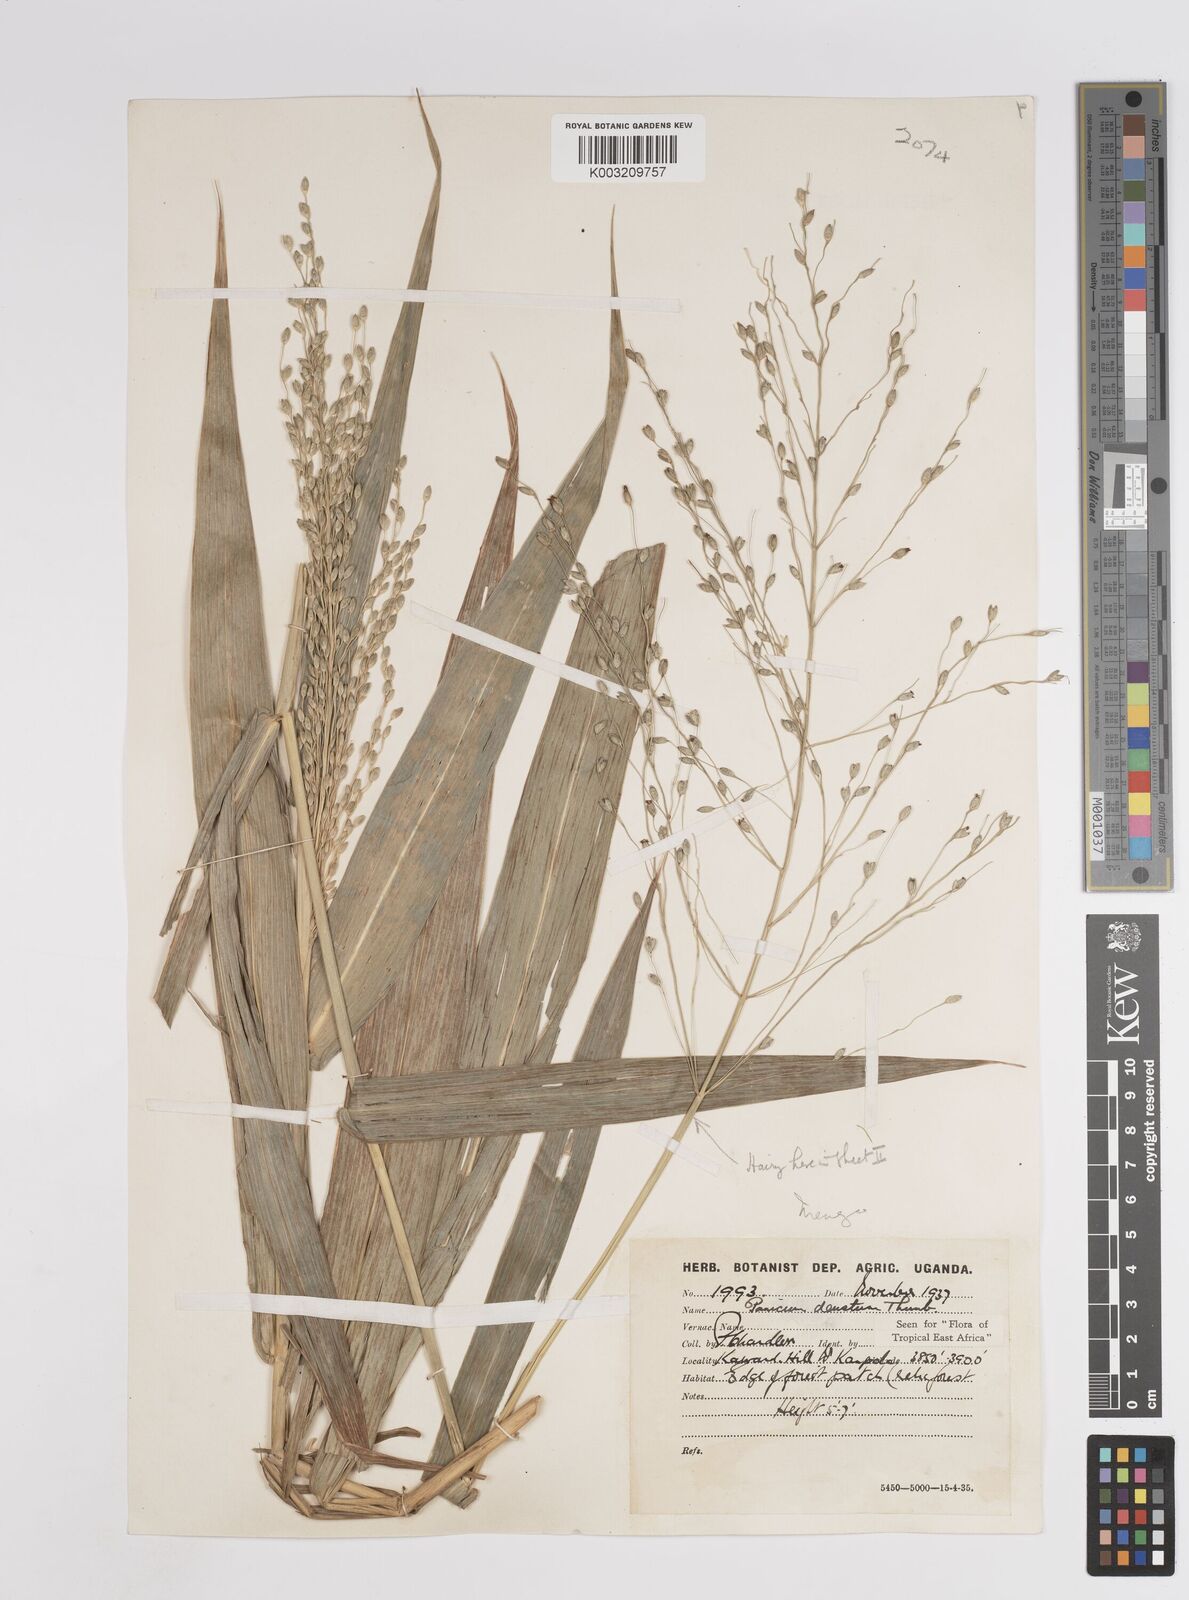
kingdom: Plantae
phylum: Tracheophyta
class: Liliopsida
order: Poales
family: Poaceae
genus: Panicum
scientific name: Panicum deustum
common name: Reed panicum
